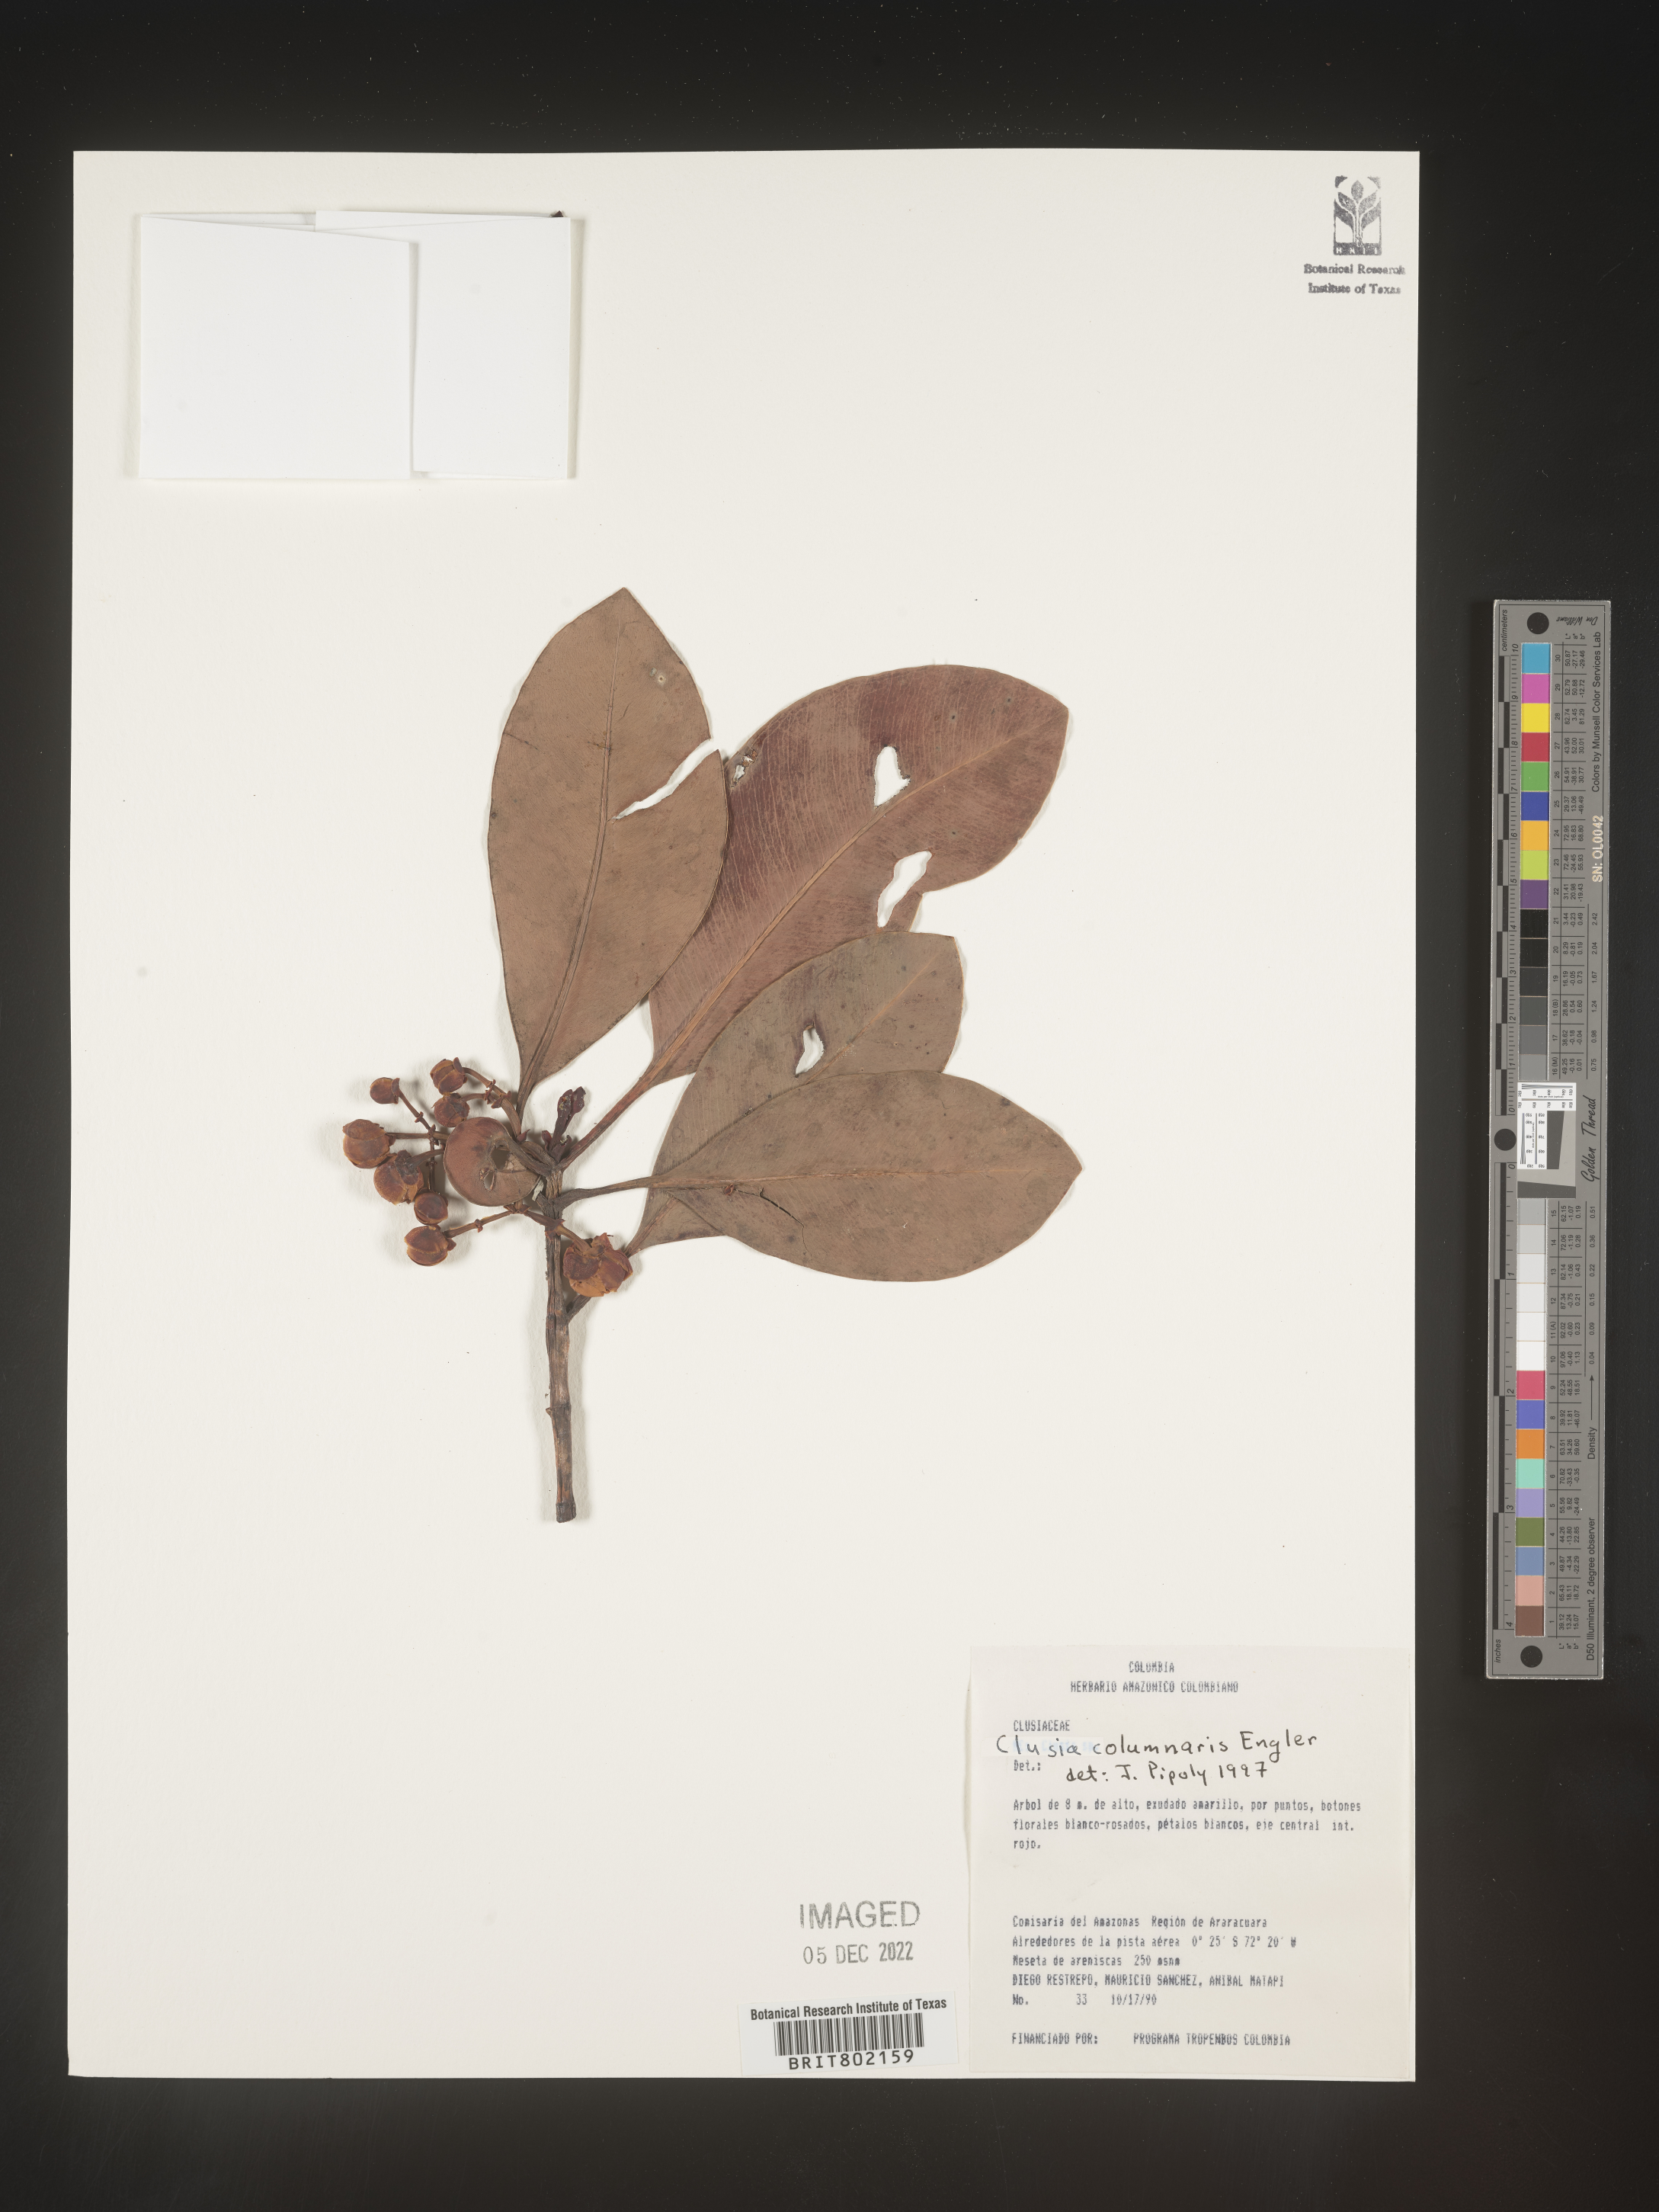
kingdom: Plantae
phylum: Tracheophyta
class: Magnoliopsida
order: Malpighiales
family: Clusiaceae
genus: Clusia
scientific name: Clusia columnaris
